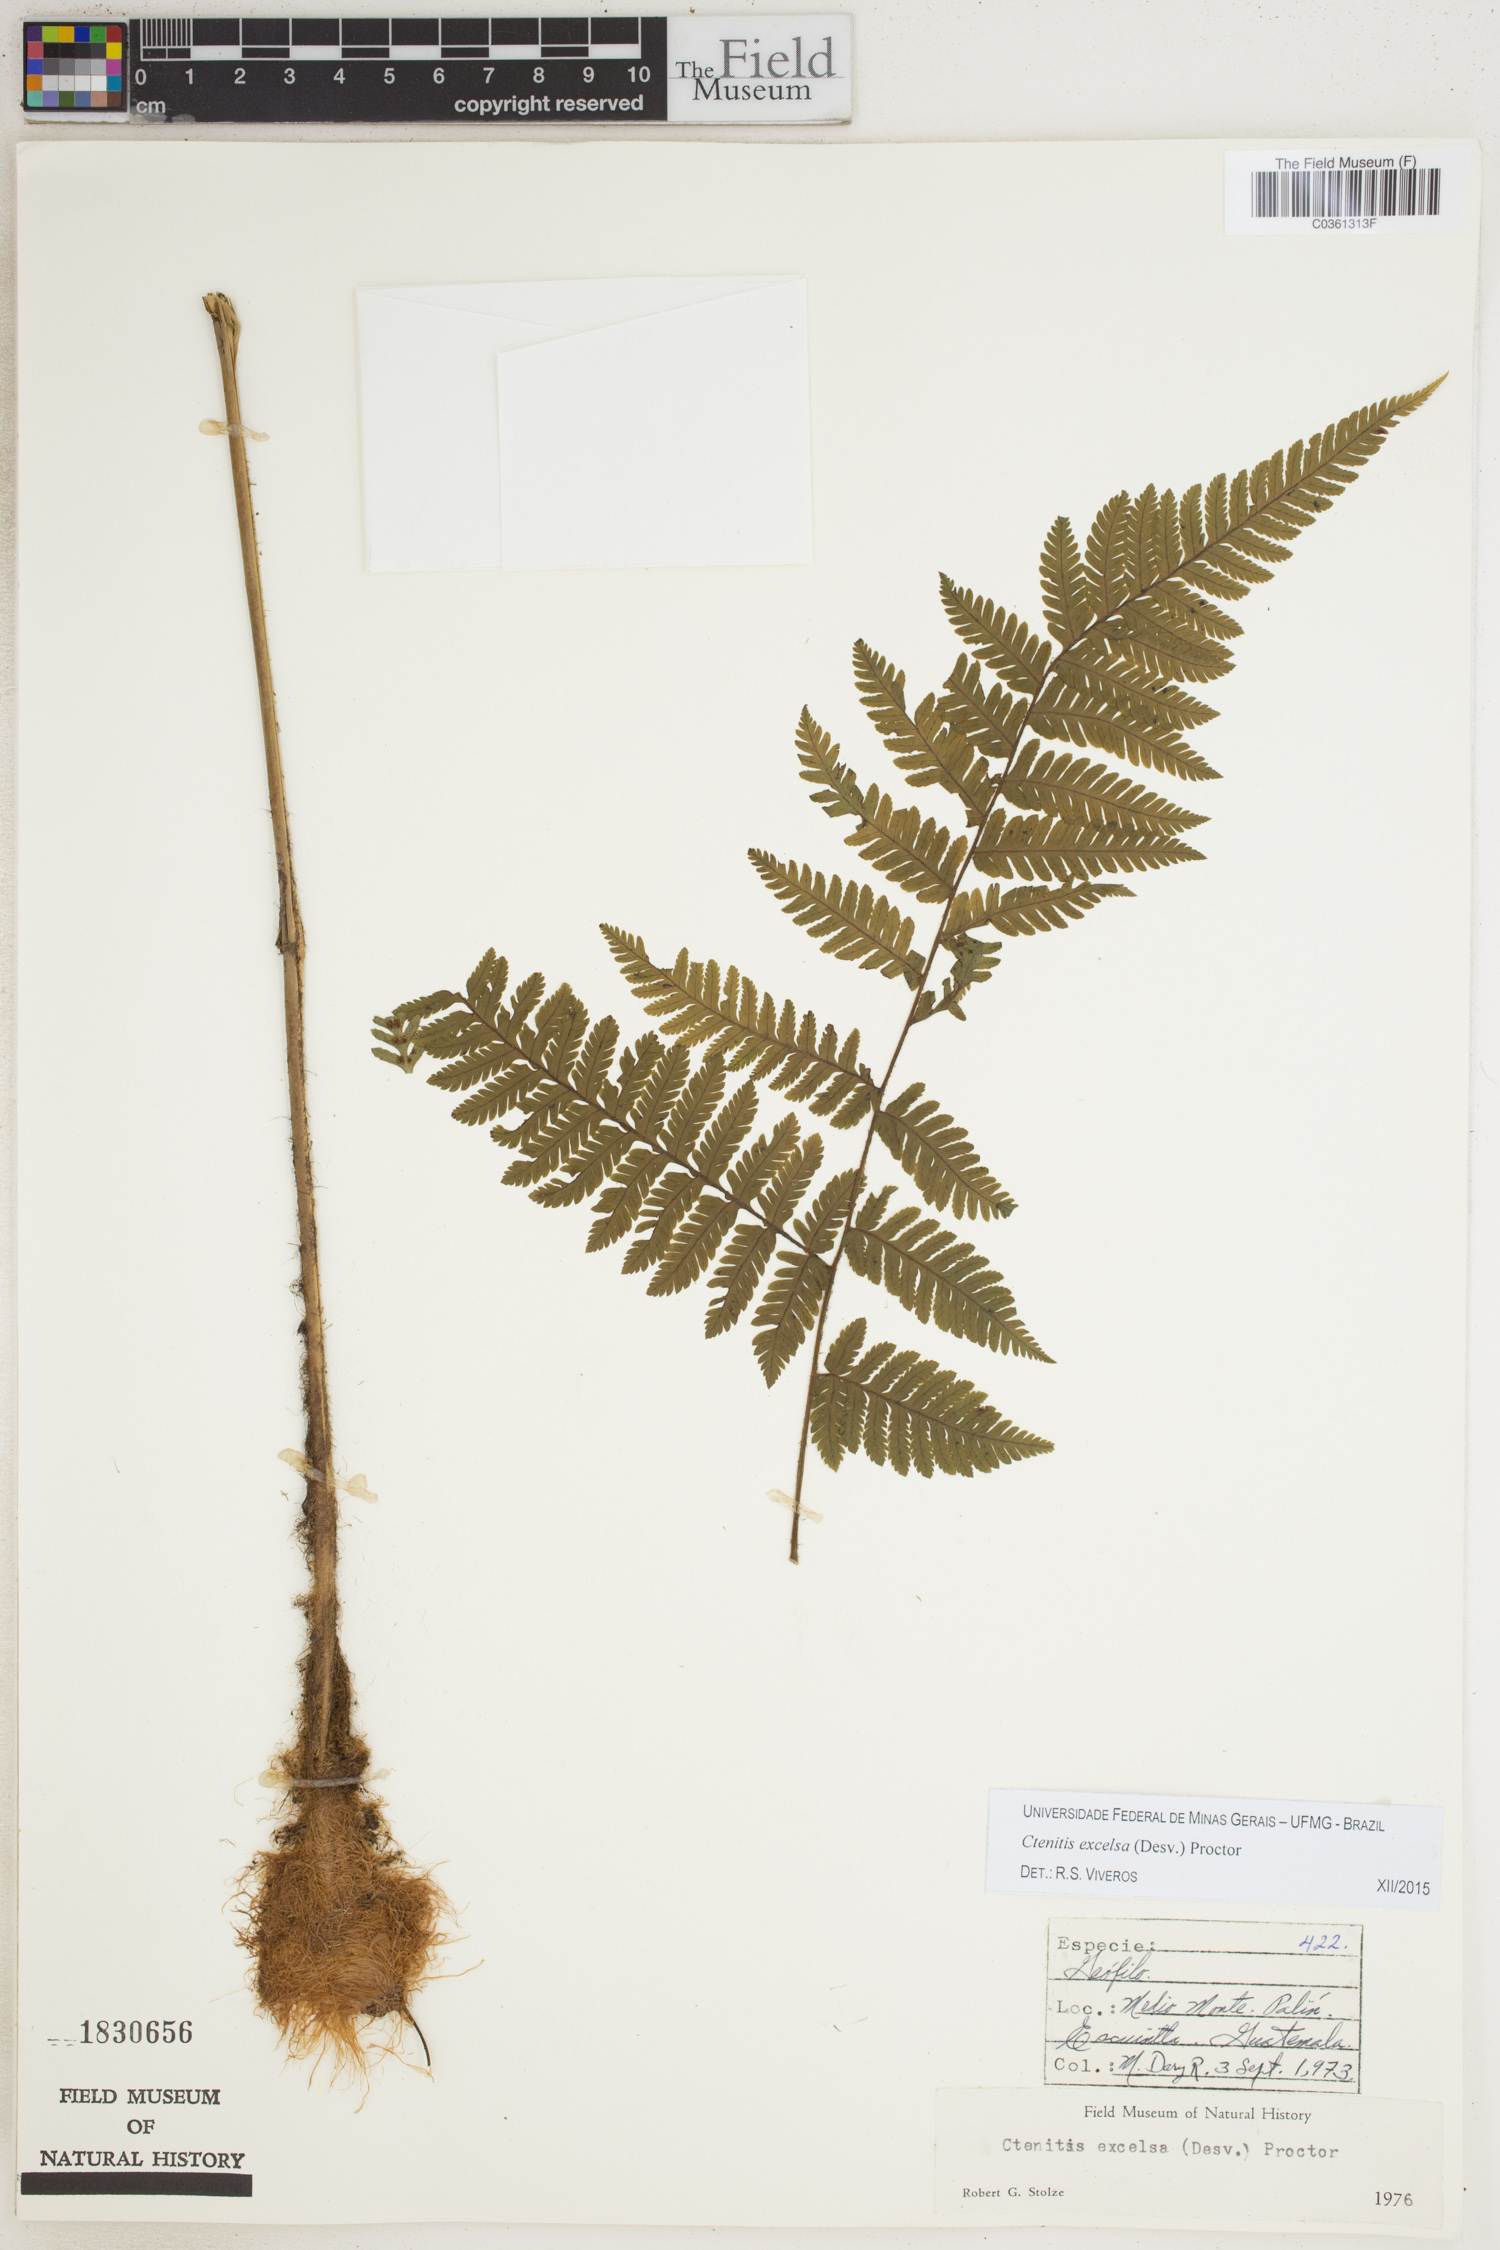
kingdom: Plantae
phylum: Tracheophyta
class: Polypodiopsida
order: Polypodiales
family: Dryopteridaceae
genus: Ctenitis
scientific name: Ctenitis excelsa
